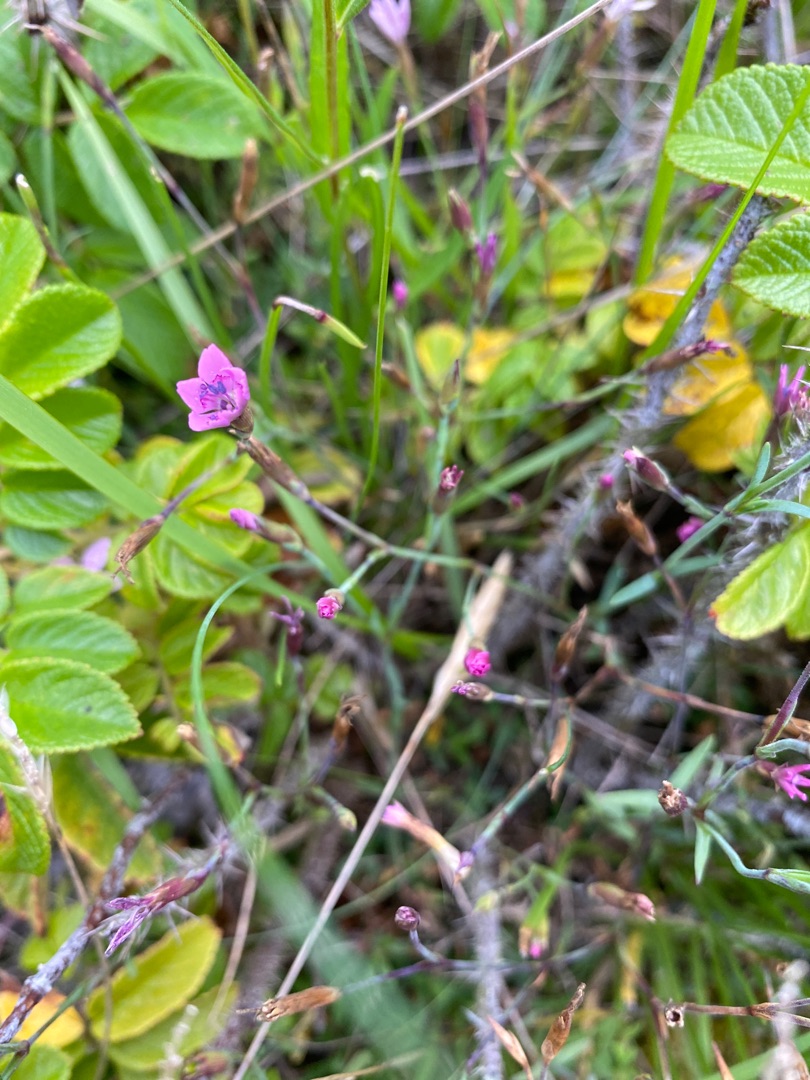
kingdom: Plantae
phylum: Tracheophyta
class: Magnoliopsida
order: Caryophyllales
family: Caryophyllaceae
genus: Dianthus
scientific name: Dianthus deltoides
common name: Bakke-nellike
